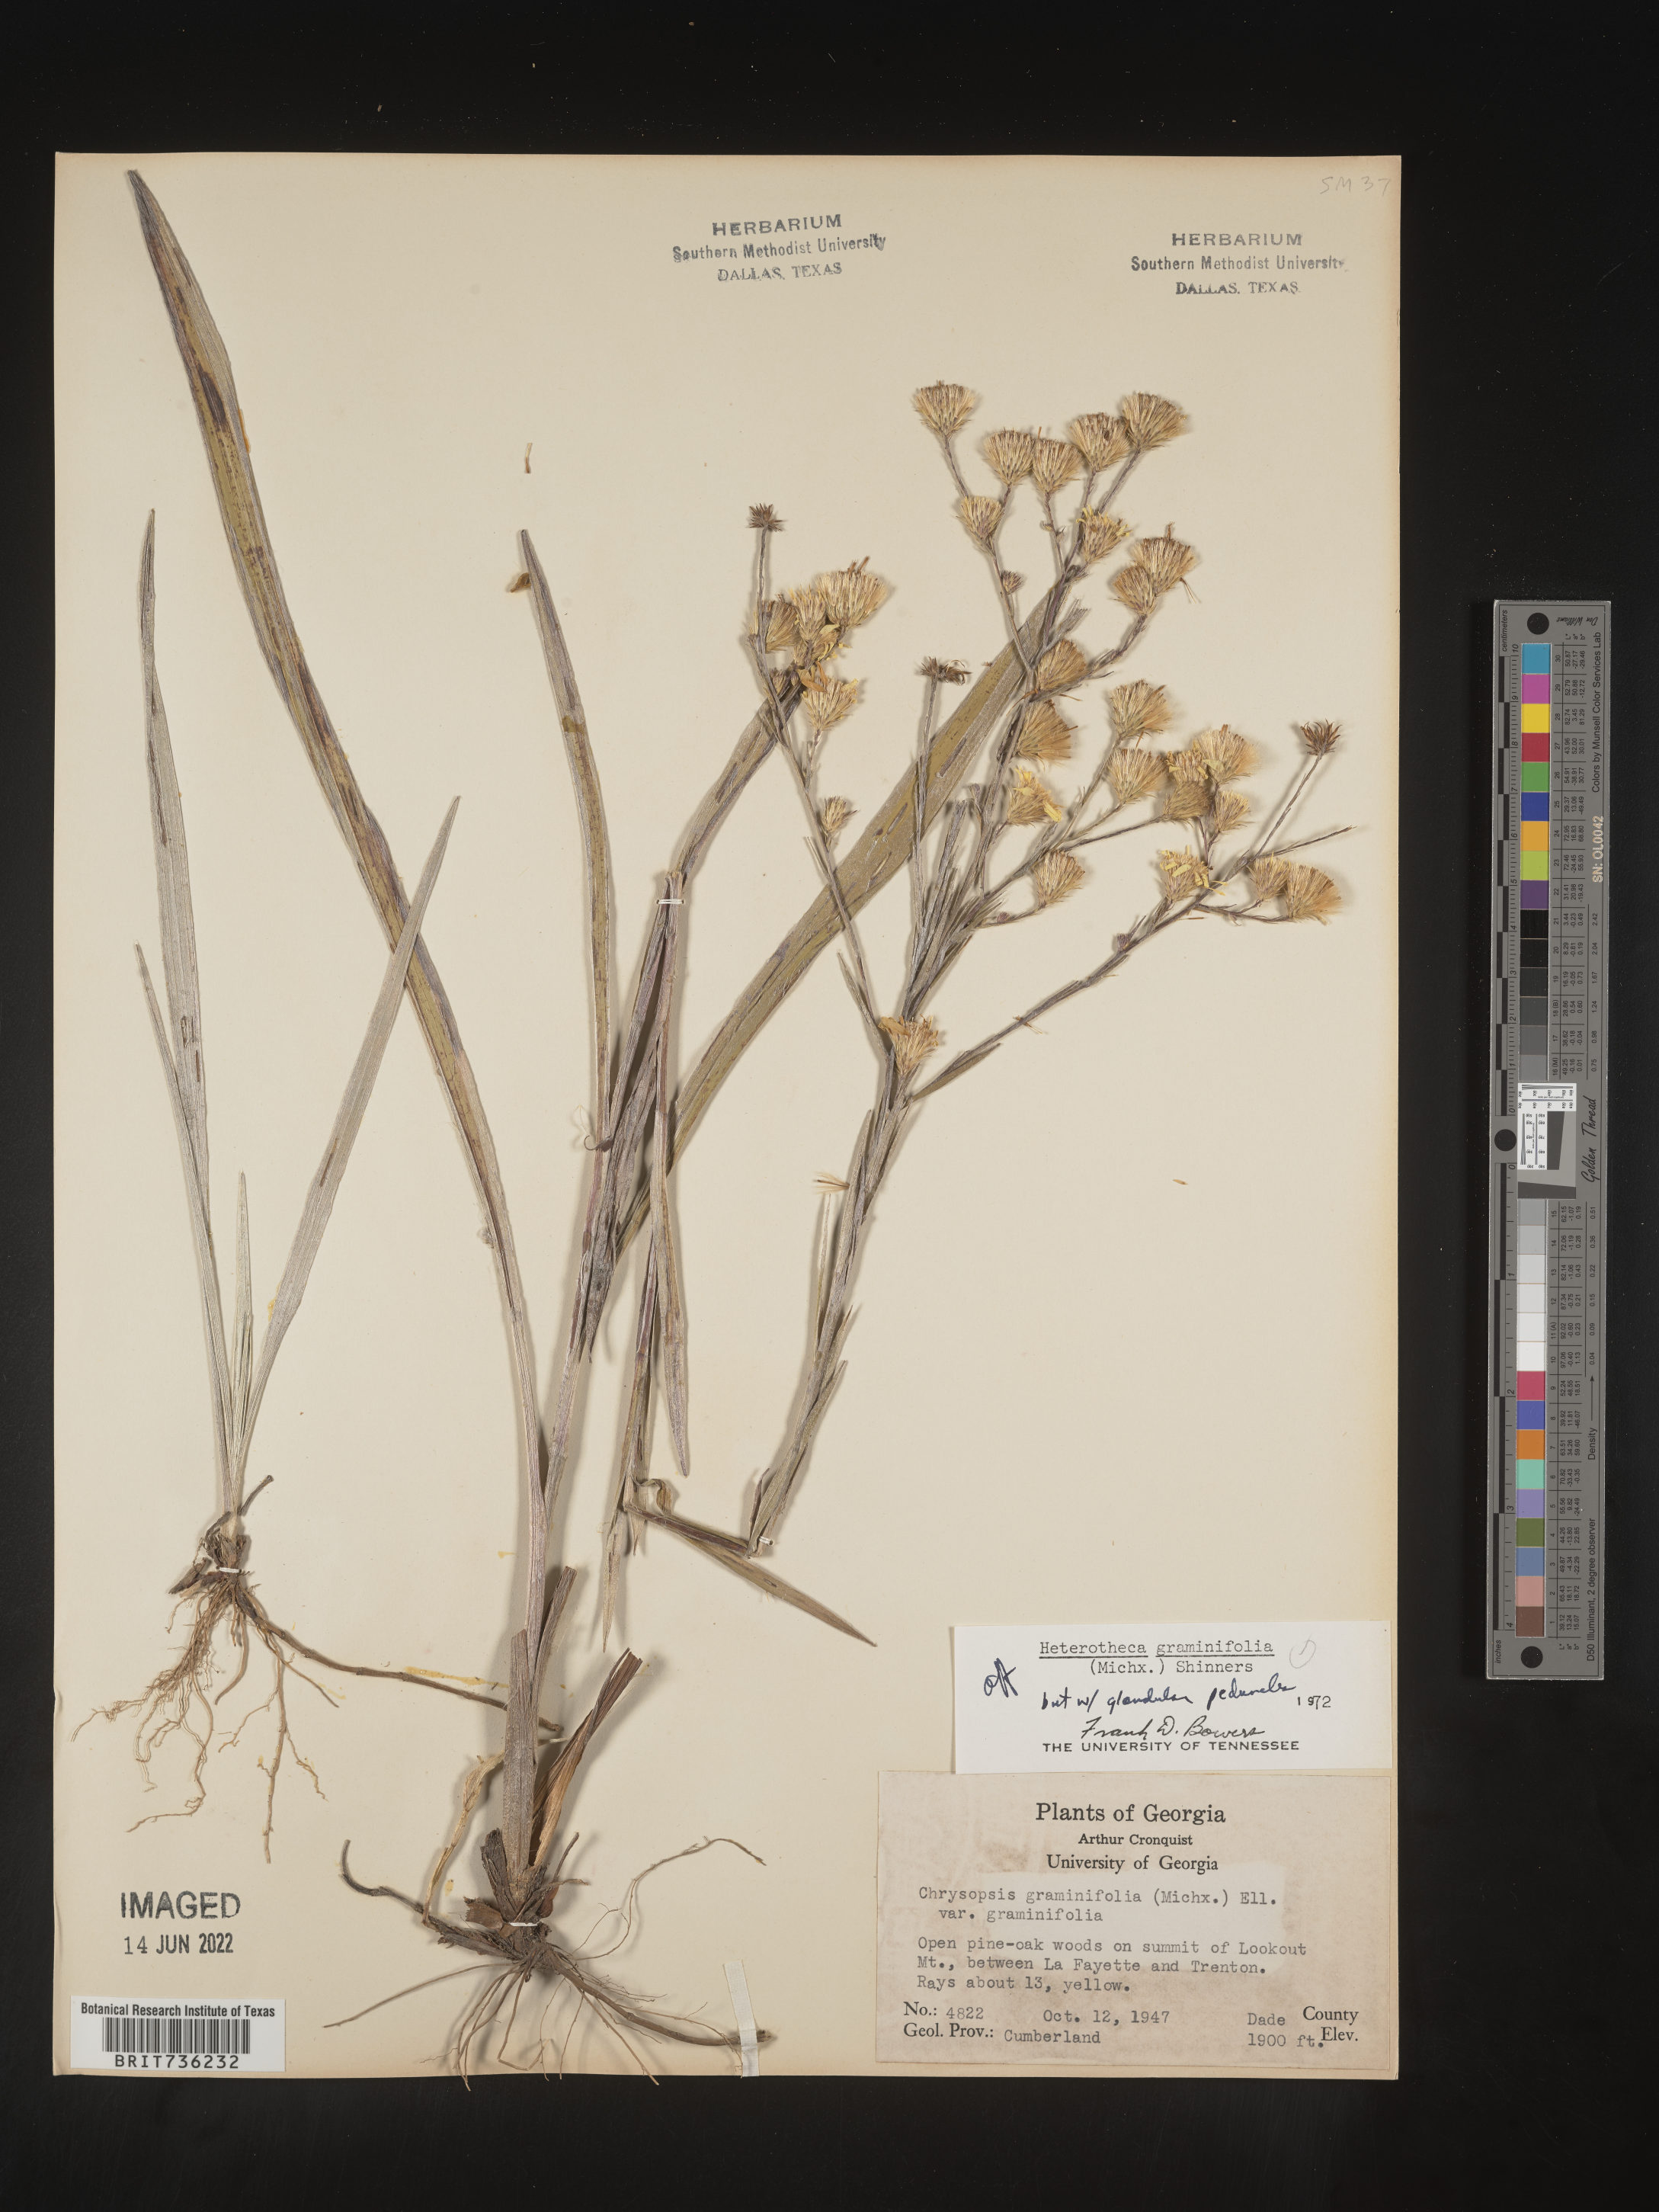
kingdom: Plantae
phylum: Tracheophyta
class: Magnoliopsida
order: Asterales
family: Asteraceae
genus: Pityopsis
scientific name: Pityopsis graminifolia
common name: Grass-leaf golden-aster
